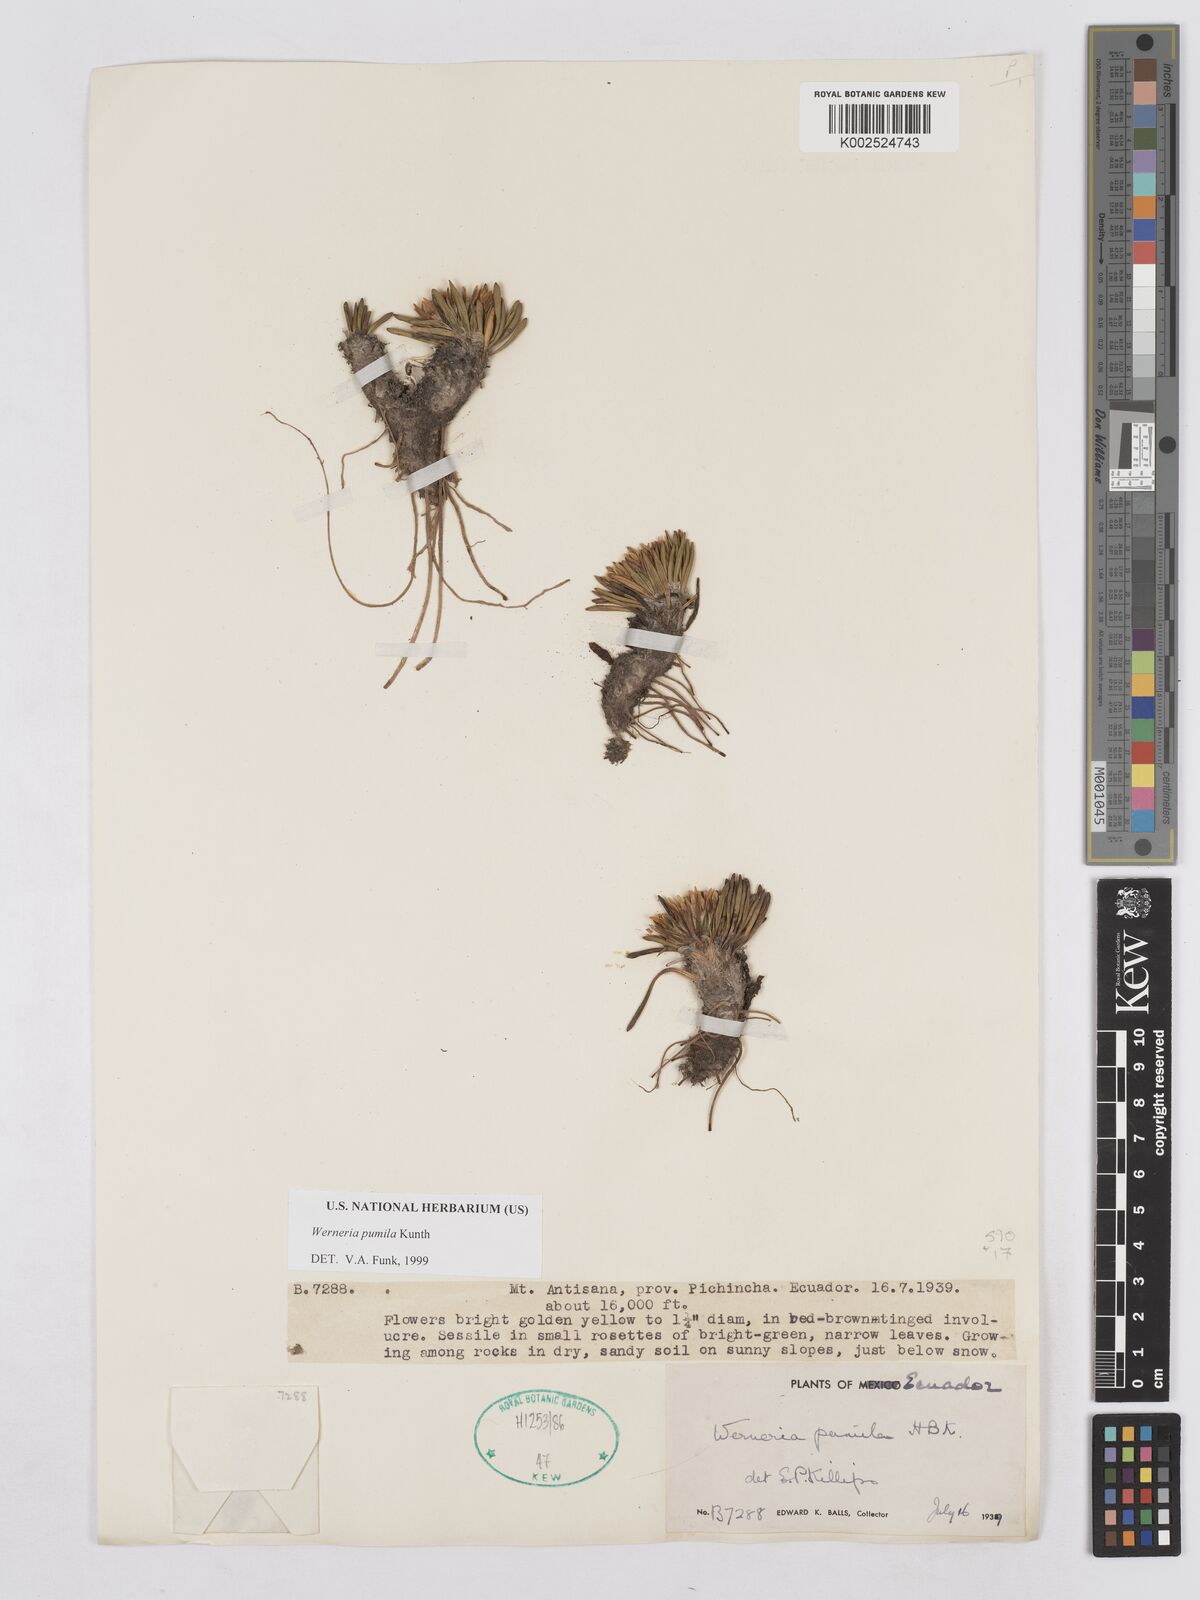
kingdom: Plantae
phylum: Tracheophyta
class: Magnoliopsida
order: Asterales
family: Asteraceae
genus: Rockhausenia
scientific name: Rockhausenia pumila
